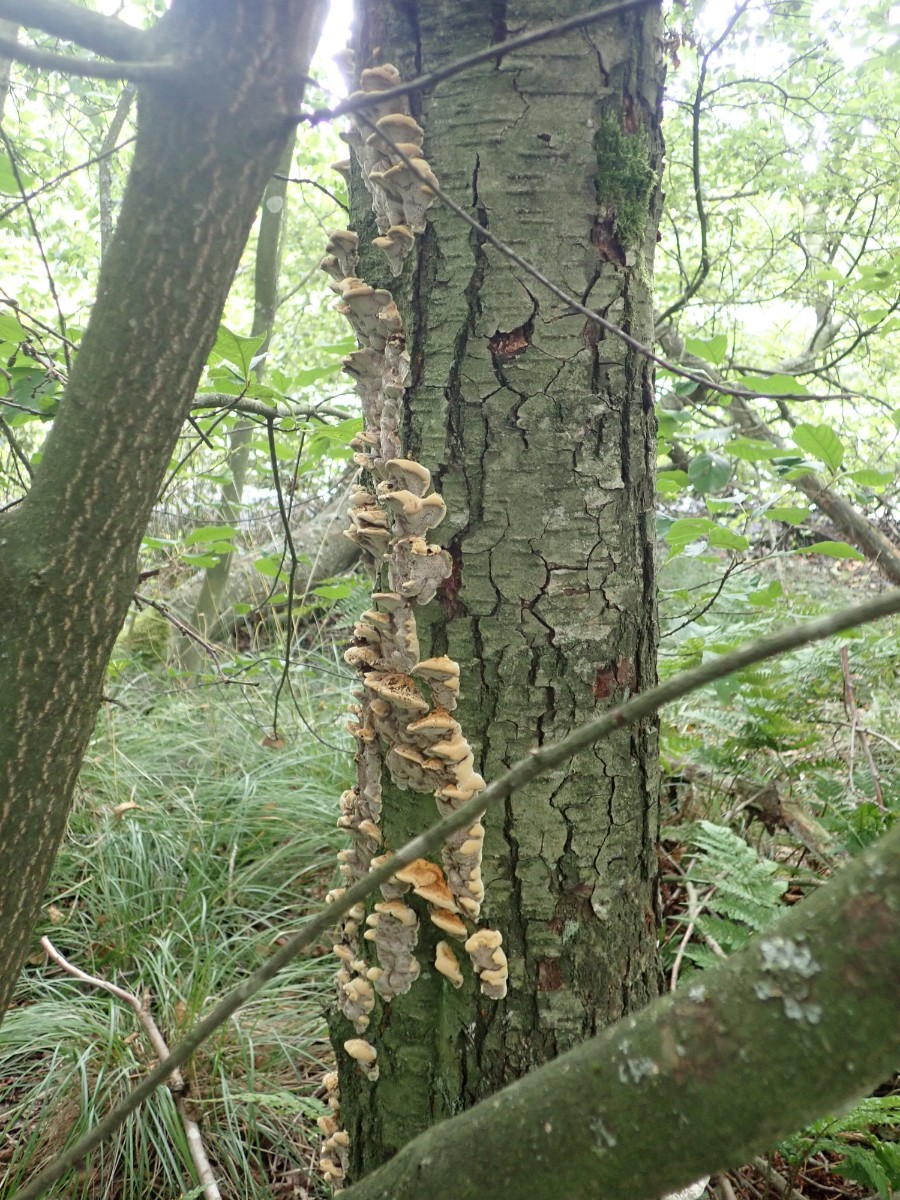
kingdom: Fungi
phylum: Basidiomycota
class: Agaricomycetes
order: Hymenochaetales
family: Hymenochaetaceae
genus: Xanthoporia
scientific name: Xanthoporia radiata
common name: elle-spejlporesvamp
